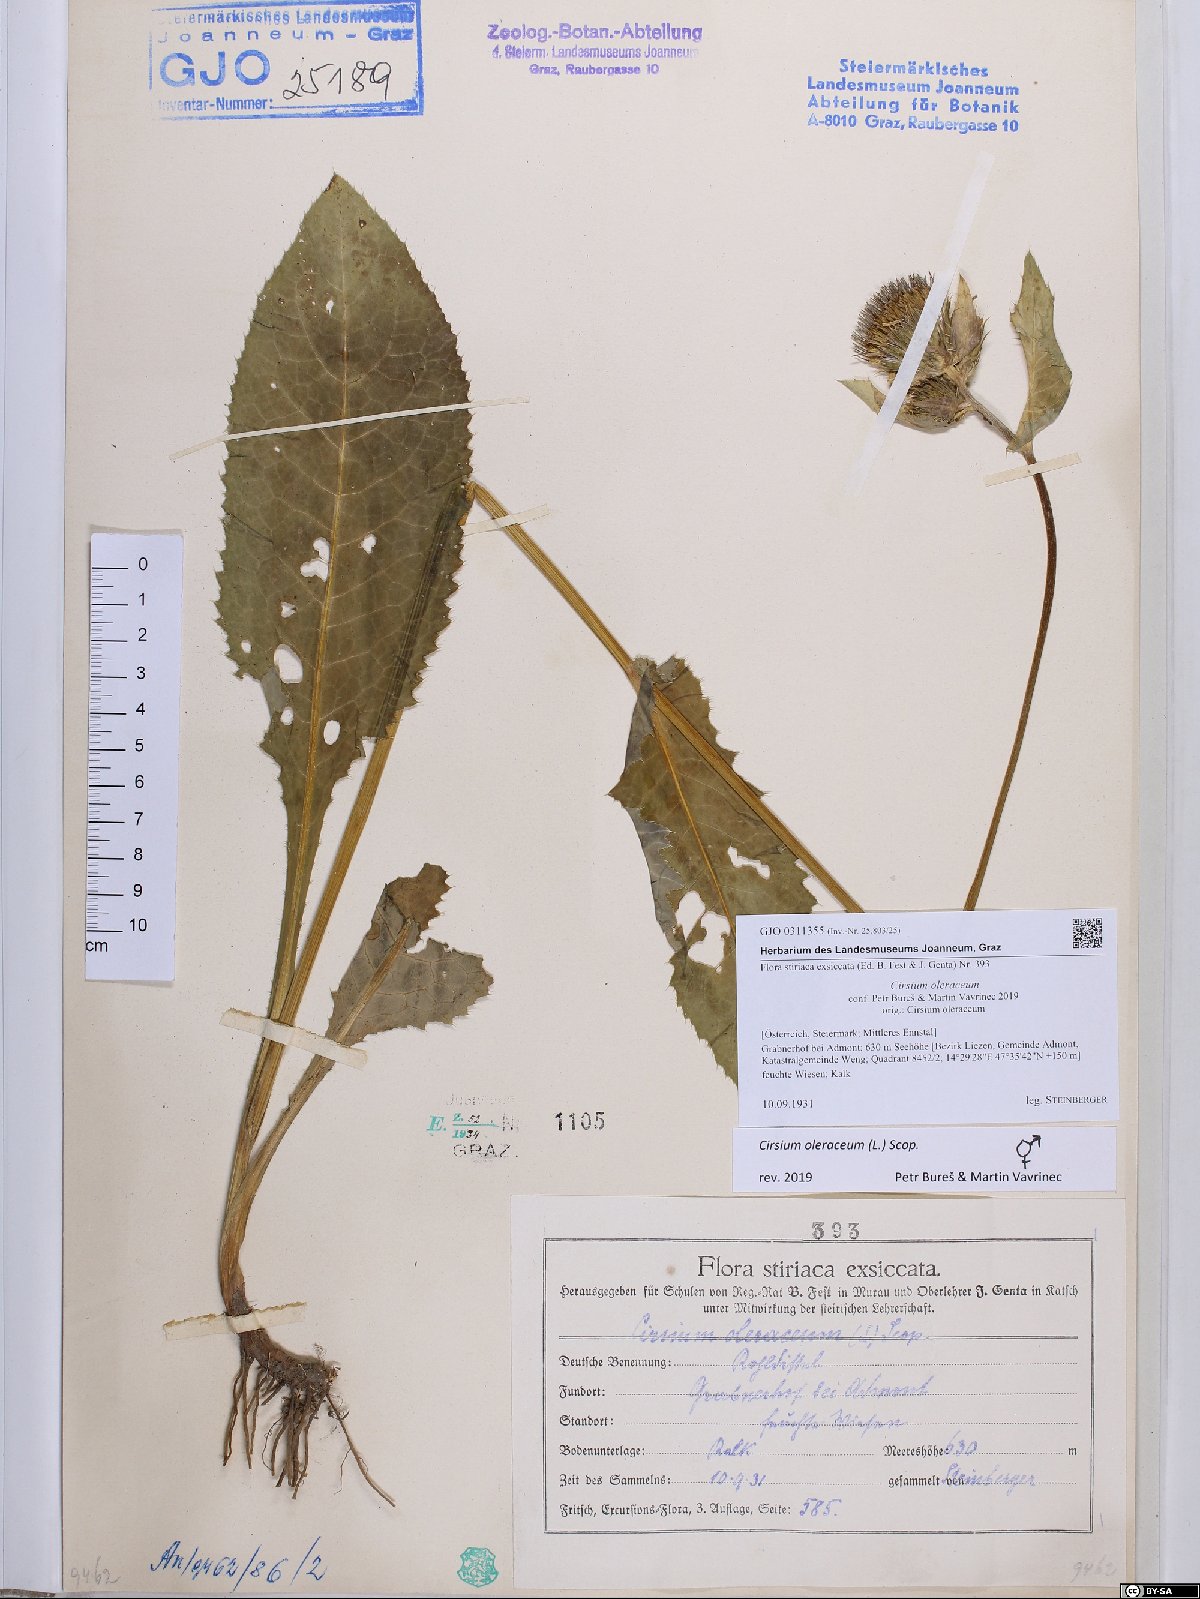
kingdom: Plantae
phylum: Tracheophyta
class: Magnoliopsida
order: Asterales
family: Asteraceae
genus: Cirsium
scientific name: Cirsium oleraceum
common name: Cabbage thistle
